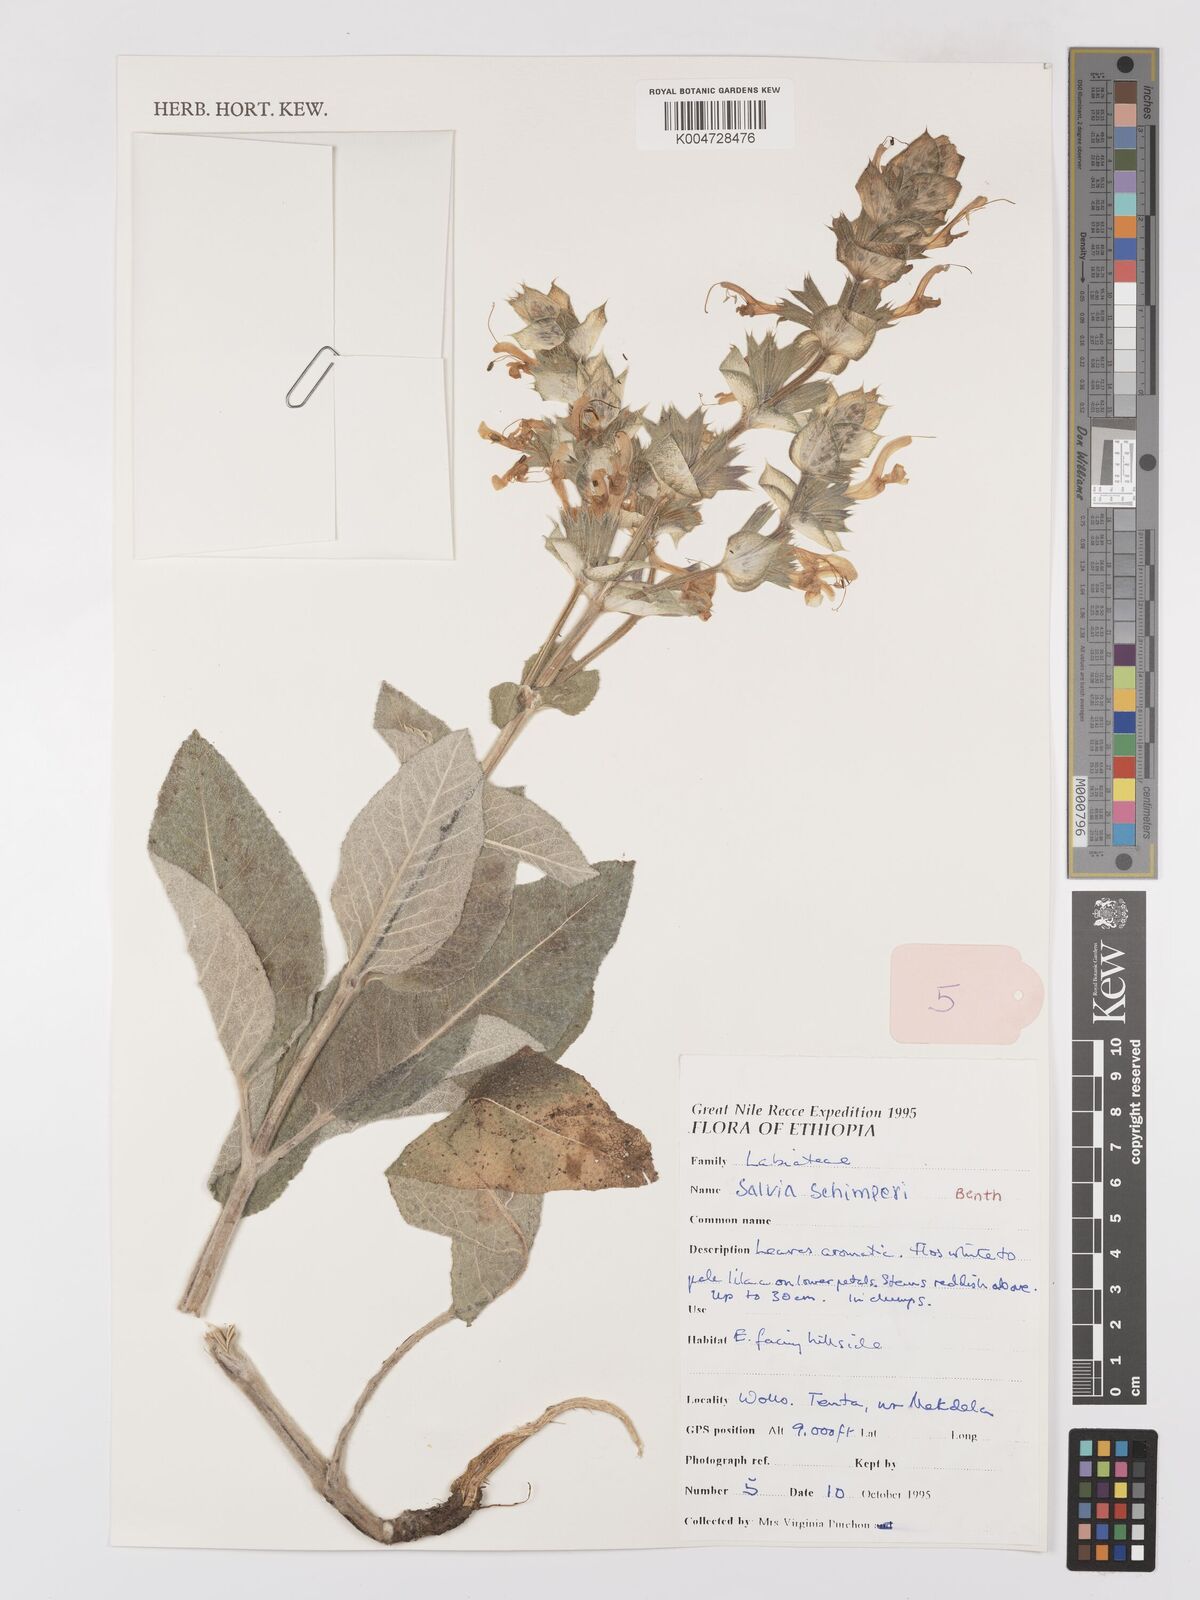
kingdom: Plantae
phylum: Tracheophyta
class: Magnoliopsida
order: Lamiales
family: Lamiaceae
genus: Salvia
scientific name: Salvia schimperi
